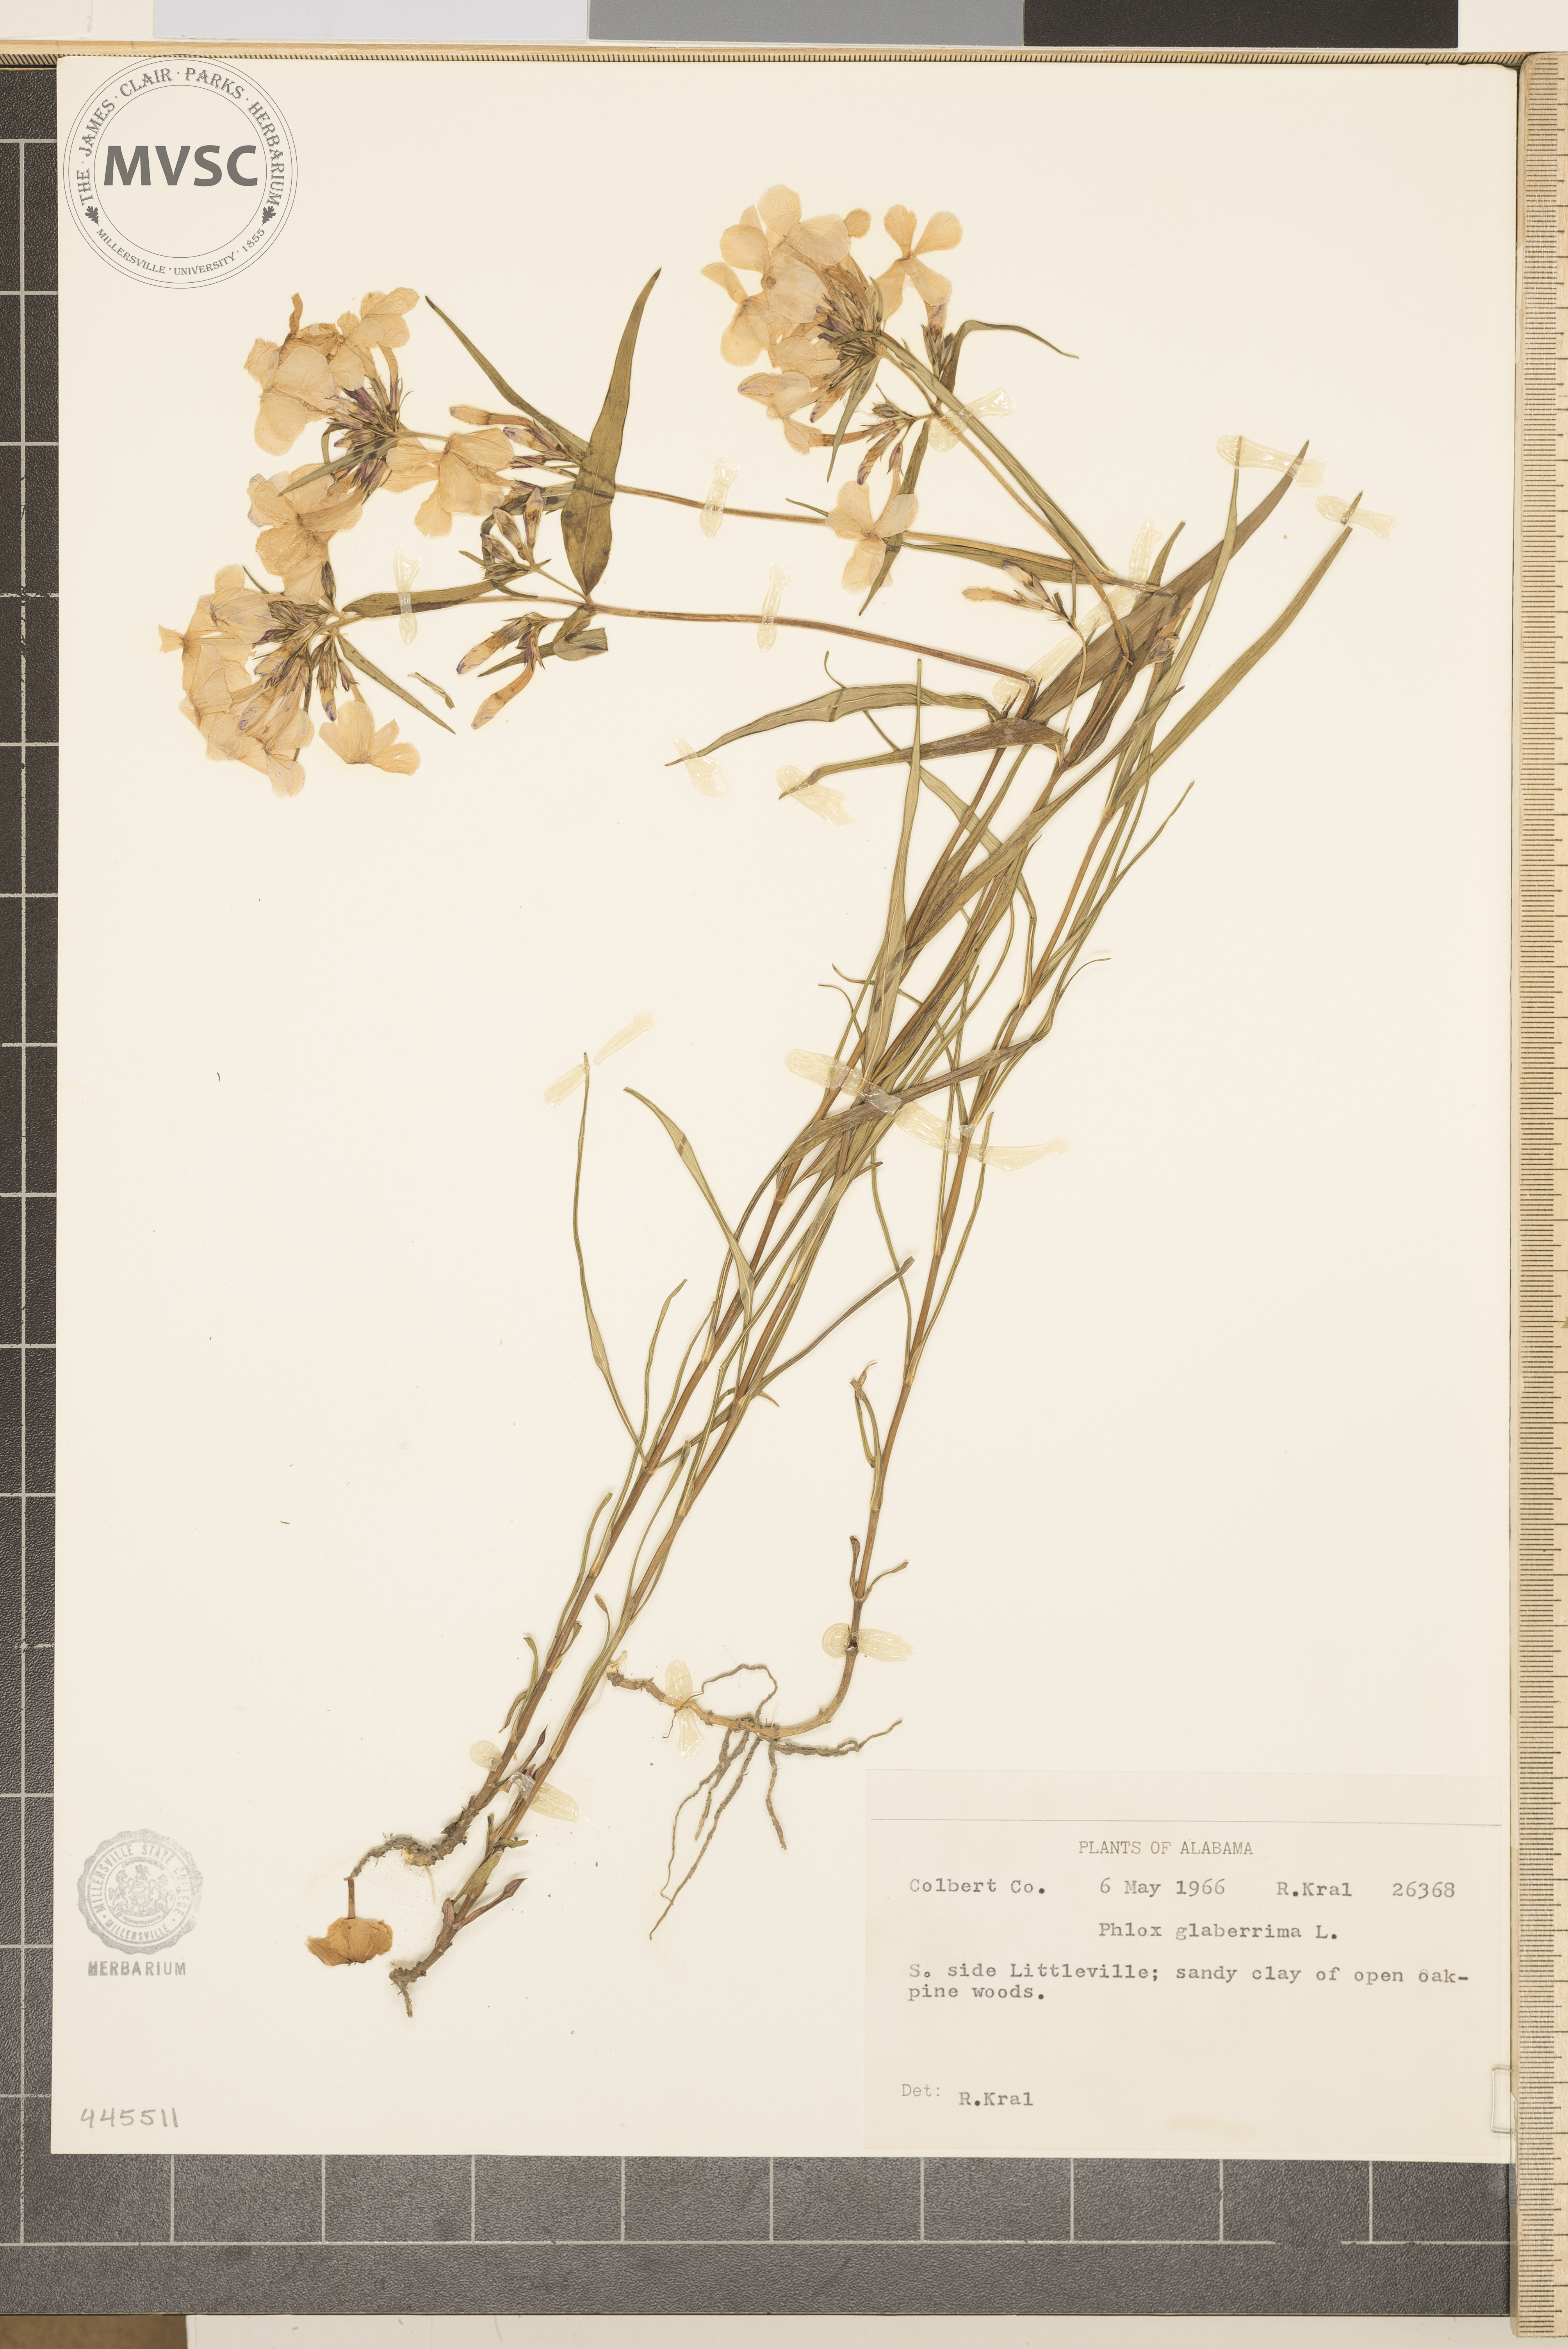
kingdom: Plantae
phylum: Tracheophyta
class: Magnoliopsida
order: Ericales
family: Polemoniaceae
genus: Phlox
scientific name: Phlox glaberrima
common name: Smooth phlox
